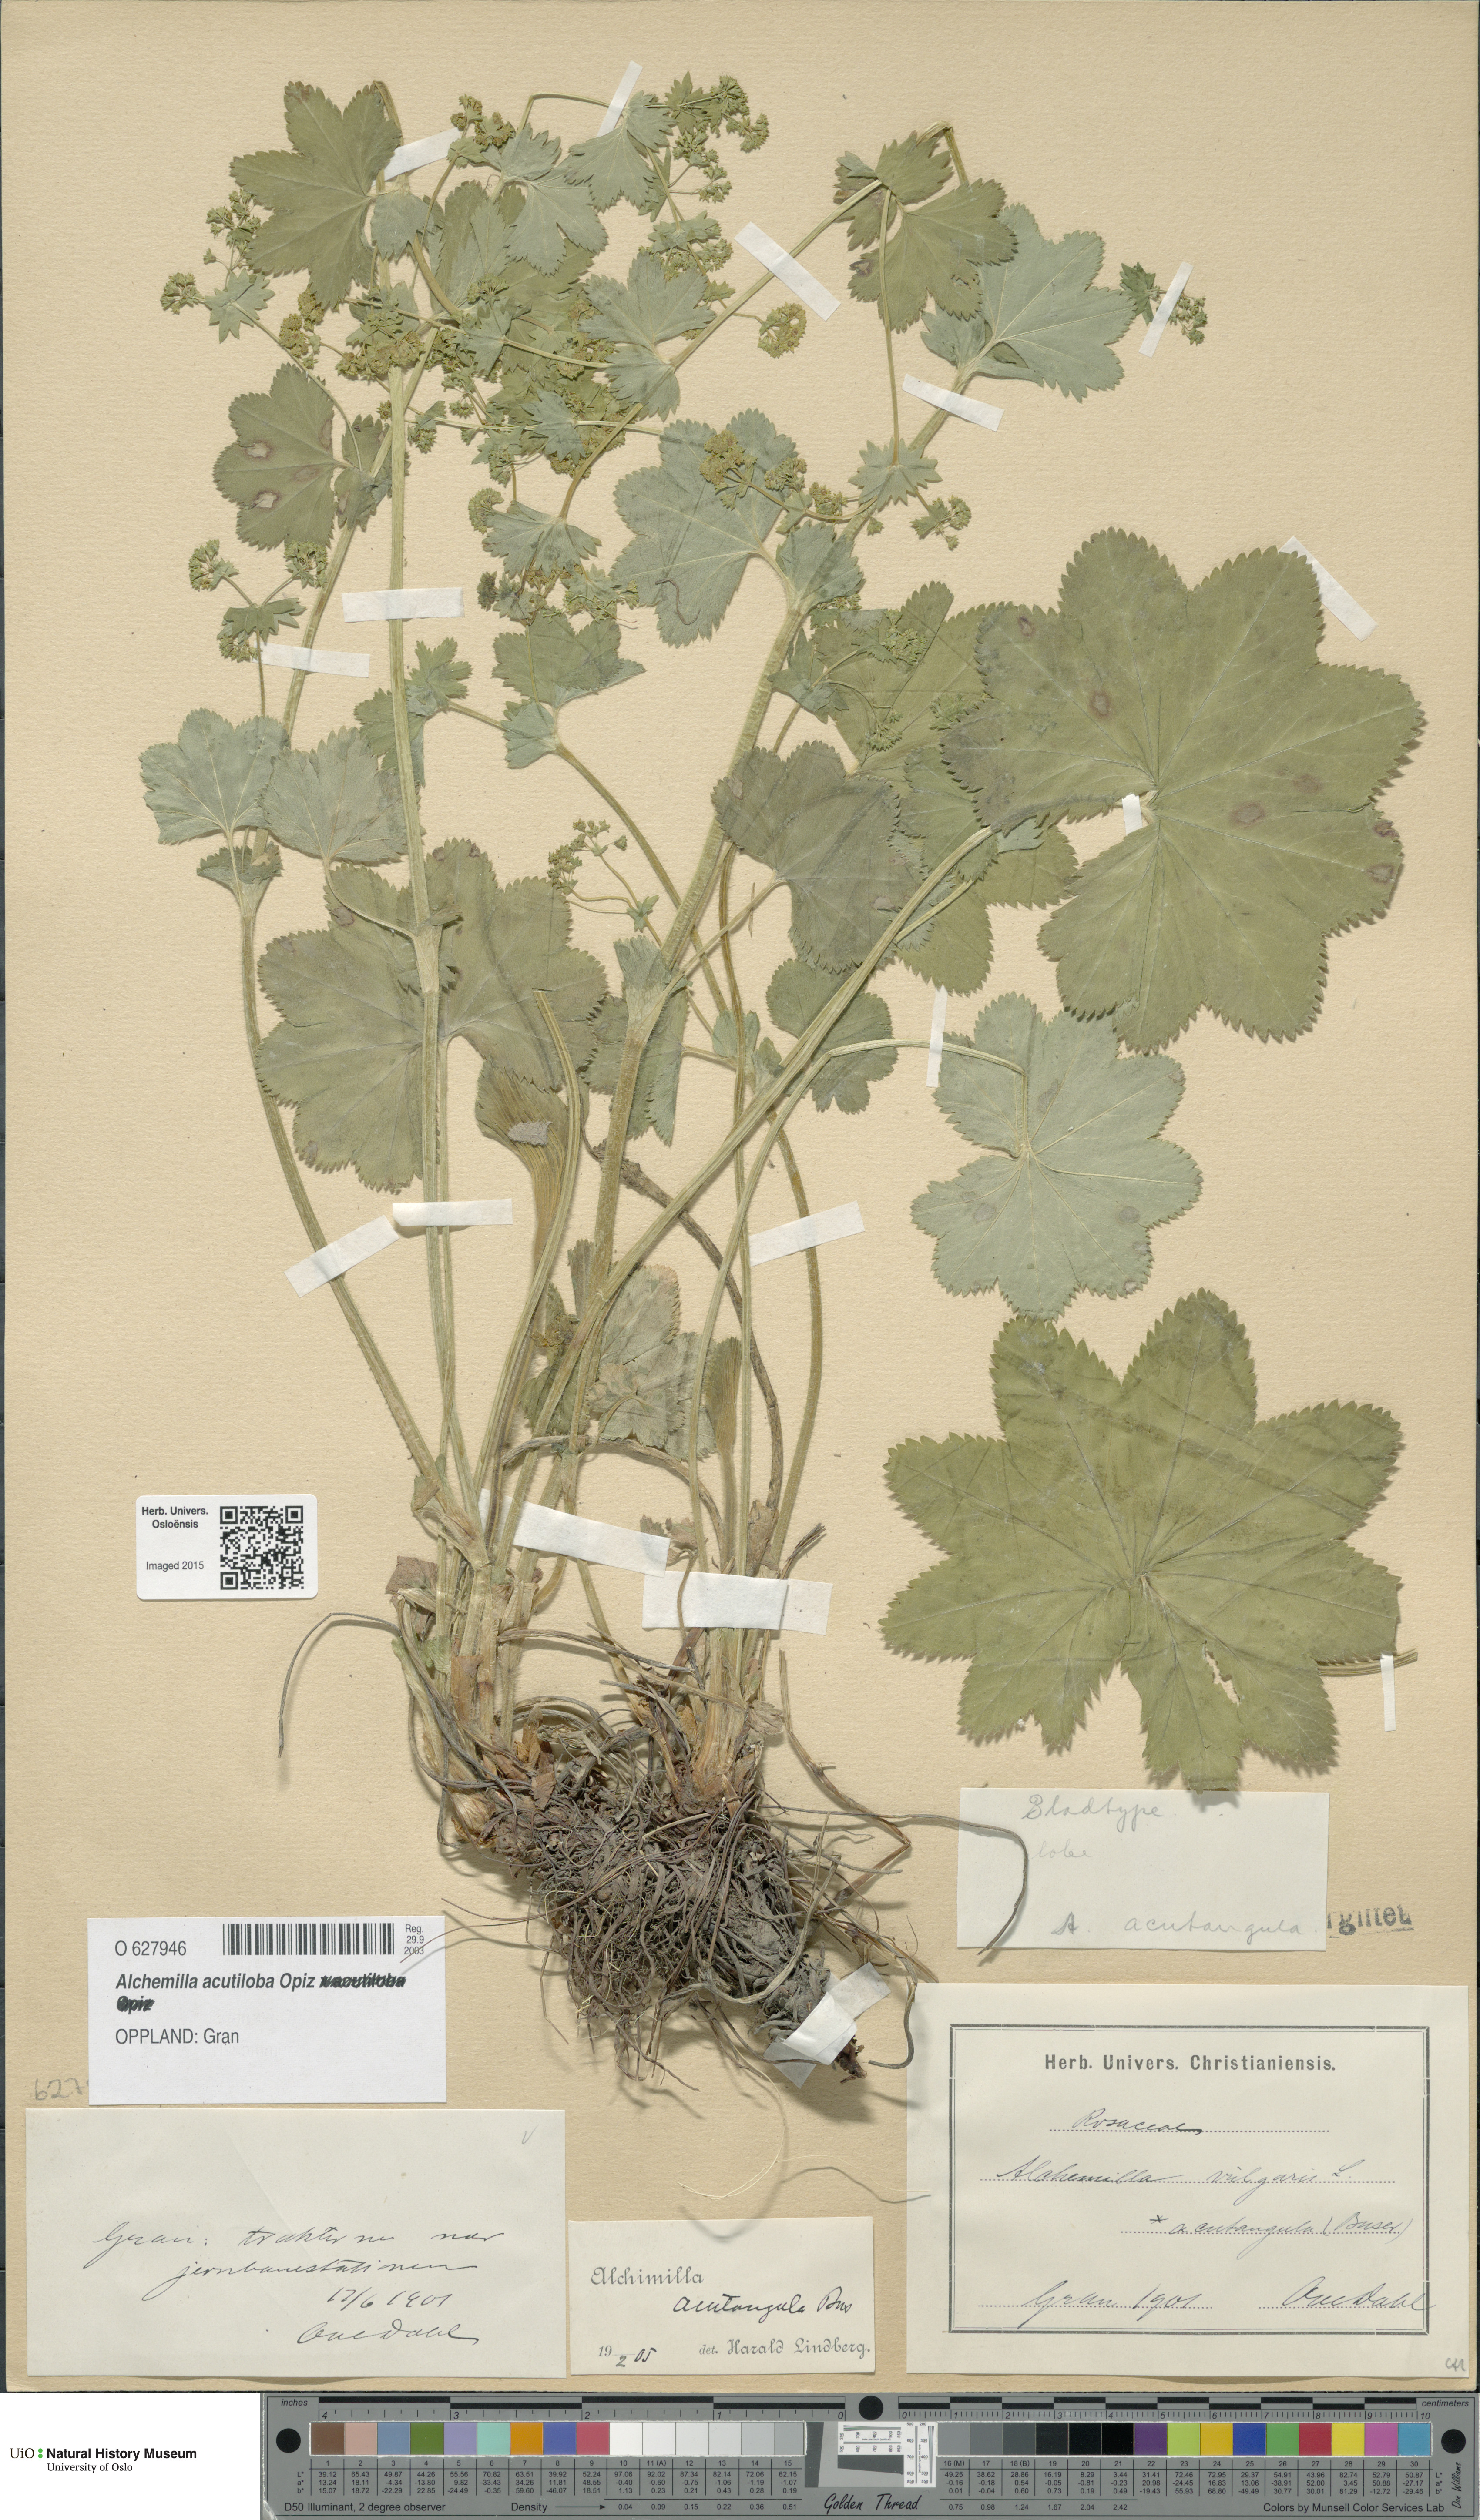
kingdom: Plantae
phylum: Tracheophyta
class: Magnoliopsida
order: Rosales
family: Rosaceae
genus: Alchemilla
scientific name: Alchemilla vulgaris
